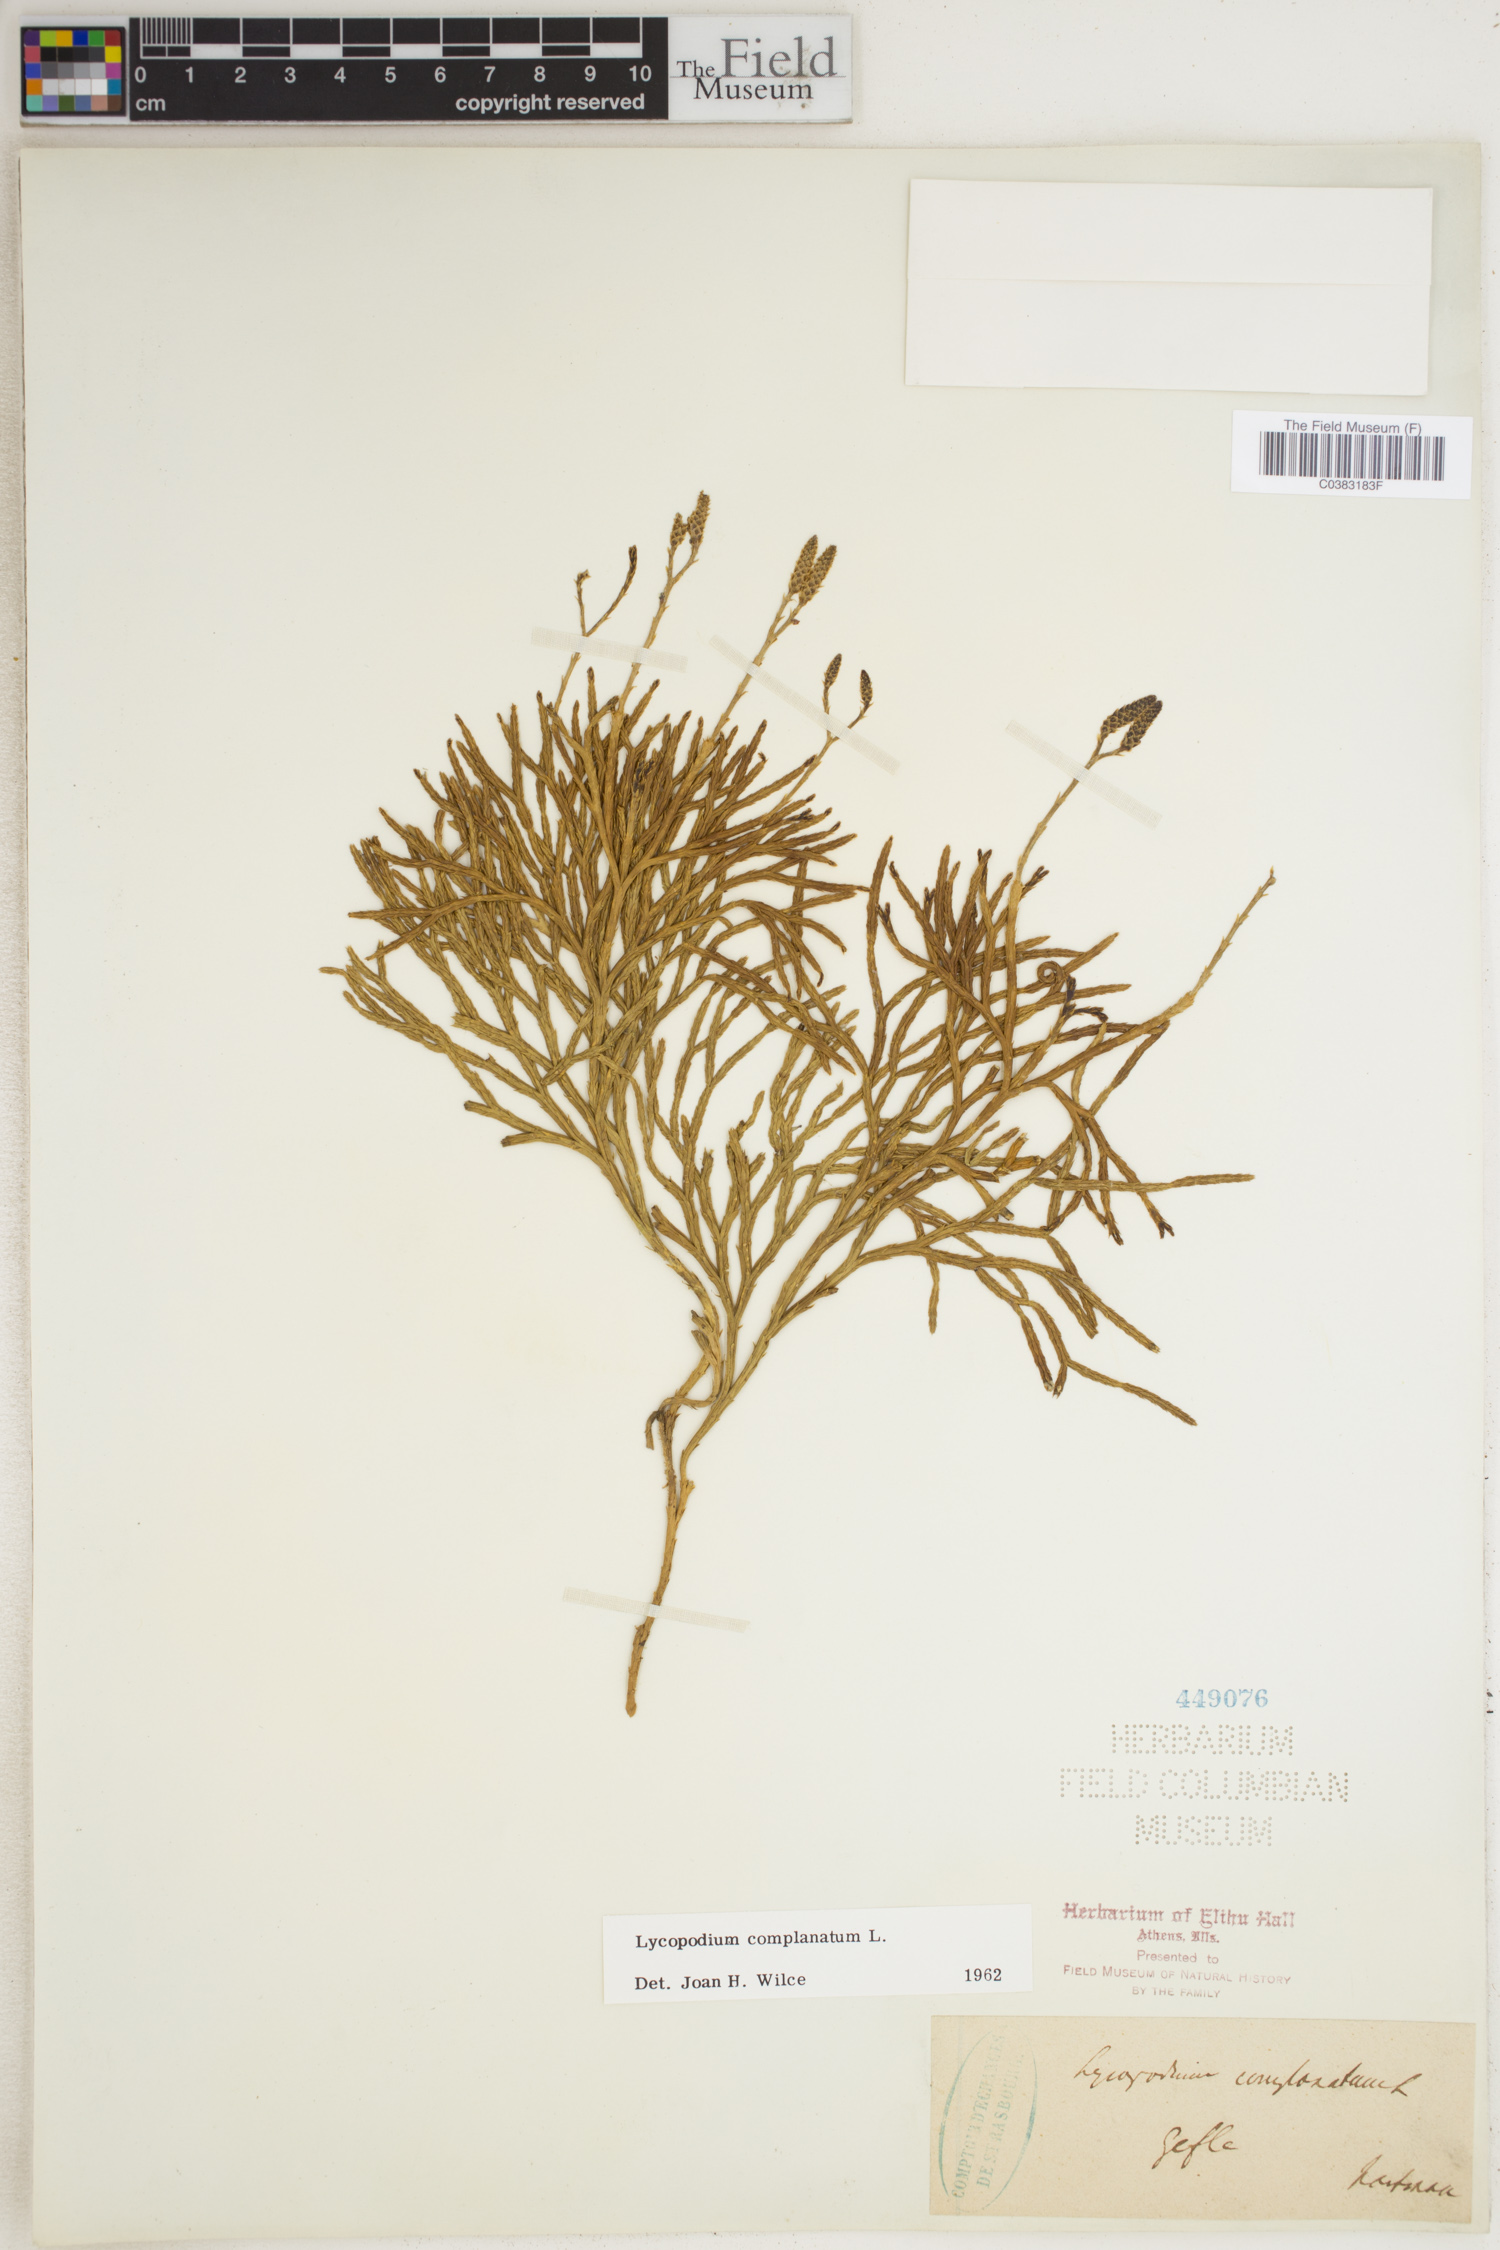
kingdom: Plantae
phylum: Tracheophyta
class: Lycopodiopsida
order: Lycopodiales
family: Lycopodiaceae
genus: Diphasiastrum
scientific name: Diphasiastrum complanatum
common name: Northern running-pine
